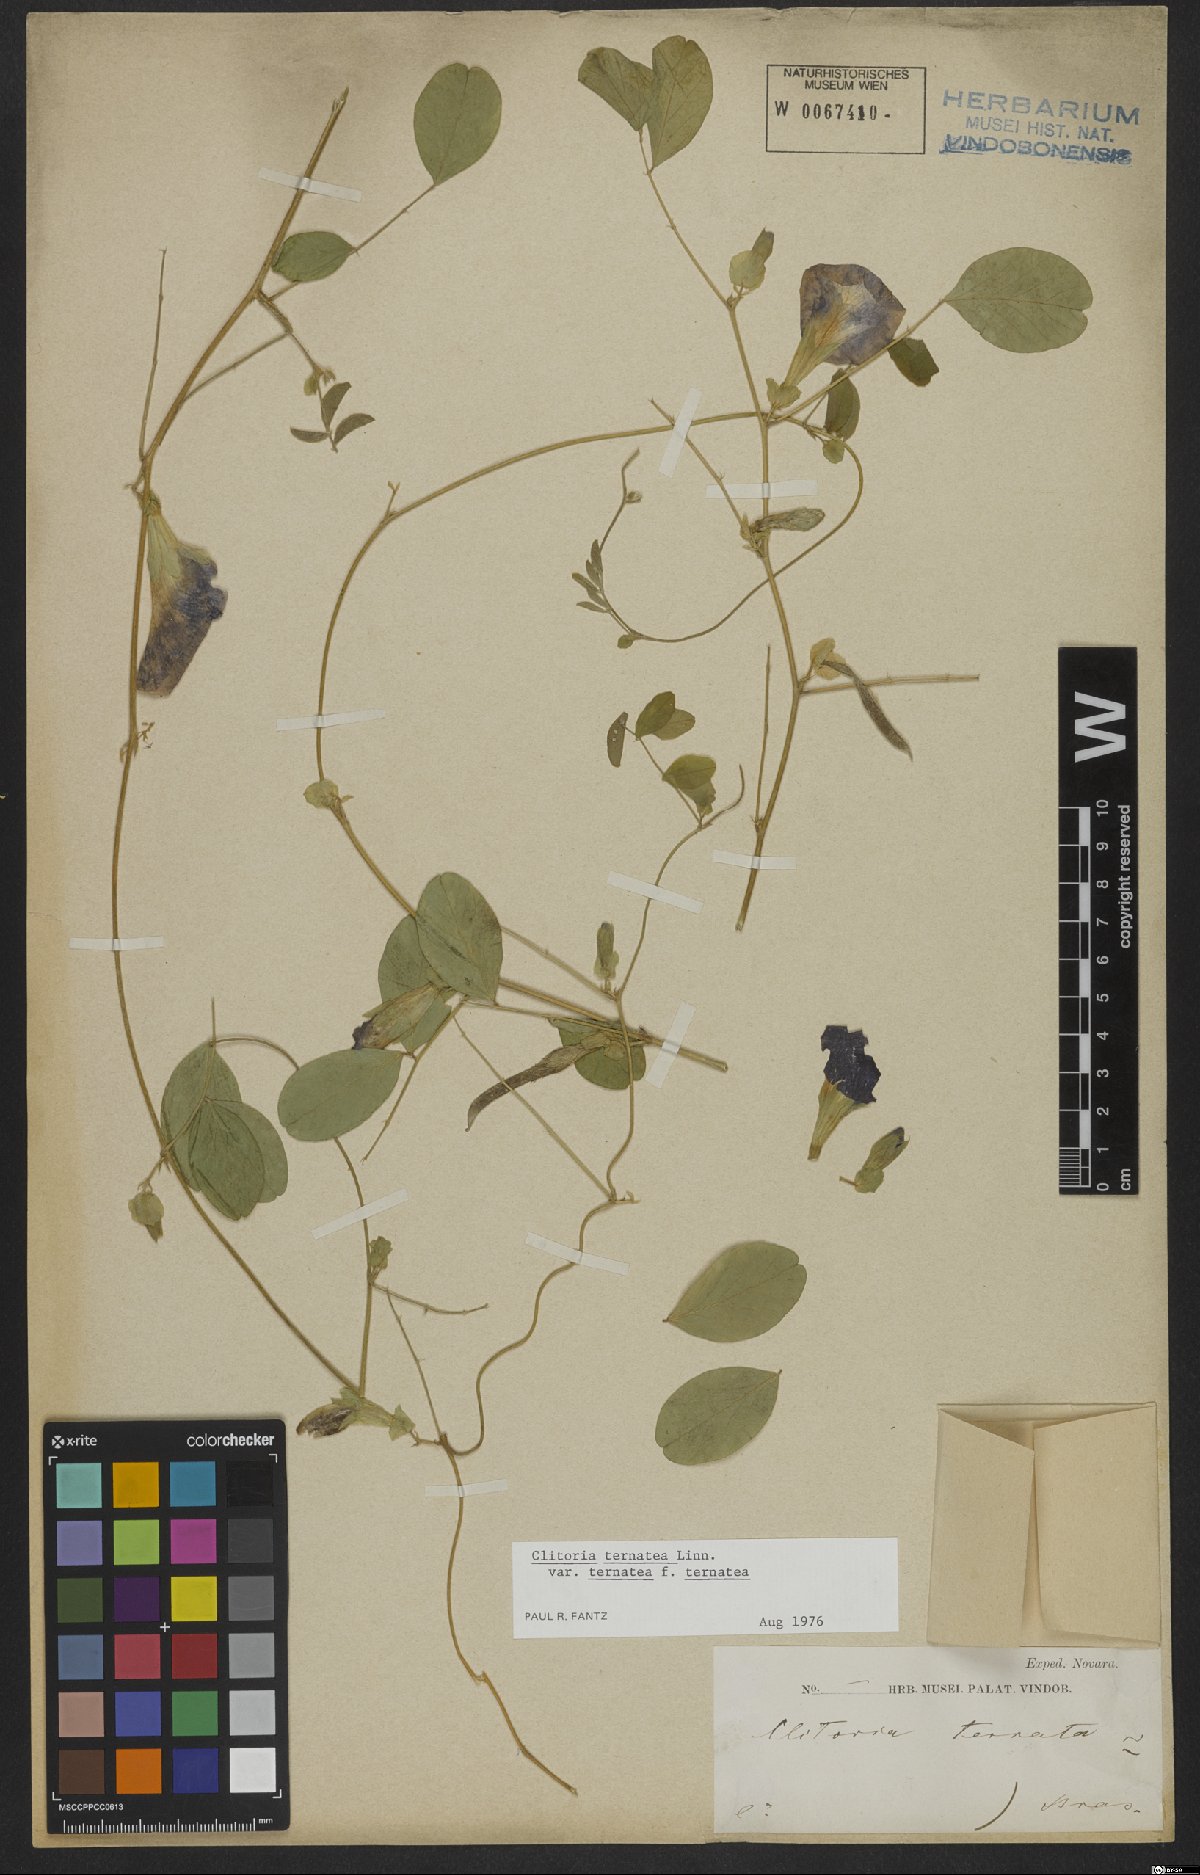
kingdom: Plantae
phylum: Tracheophyta
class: Magnoliopsida
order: Fabales
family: Fabaceae
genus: Clitoria
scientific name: Clitoria ternatea
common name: Asian pigeonwings
